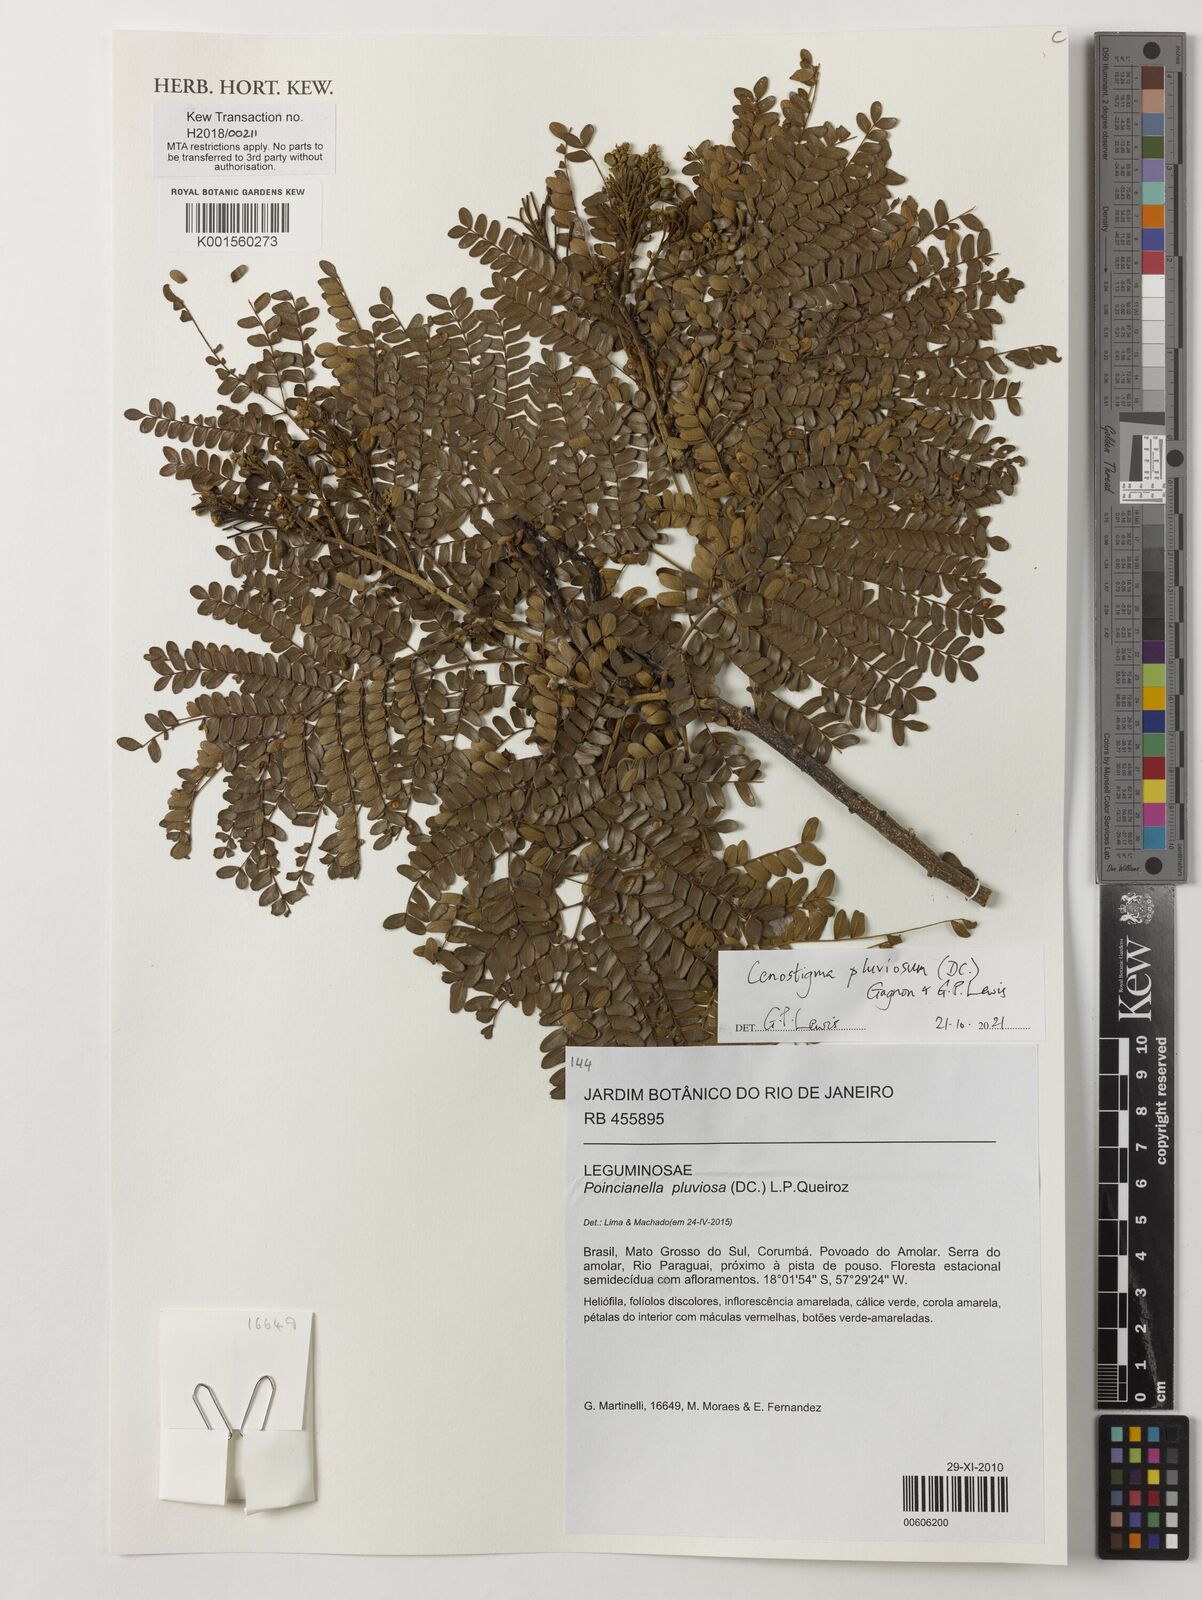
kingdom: Plantae
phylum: Tracheophyta
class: Magnoliopsida
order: Fabales
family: Fabaceae
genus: Cenostigma
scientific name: Cenostigma pluviosum
